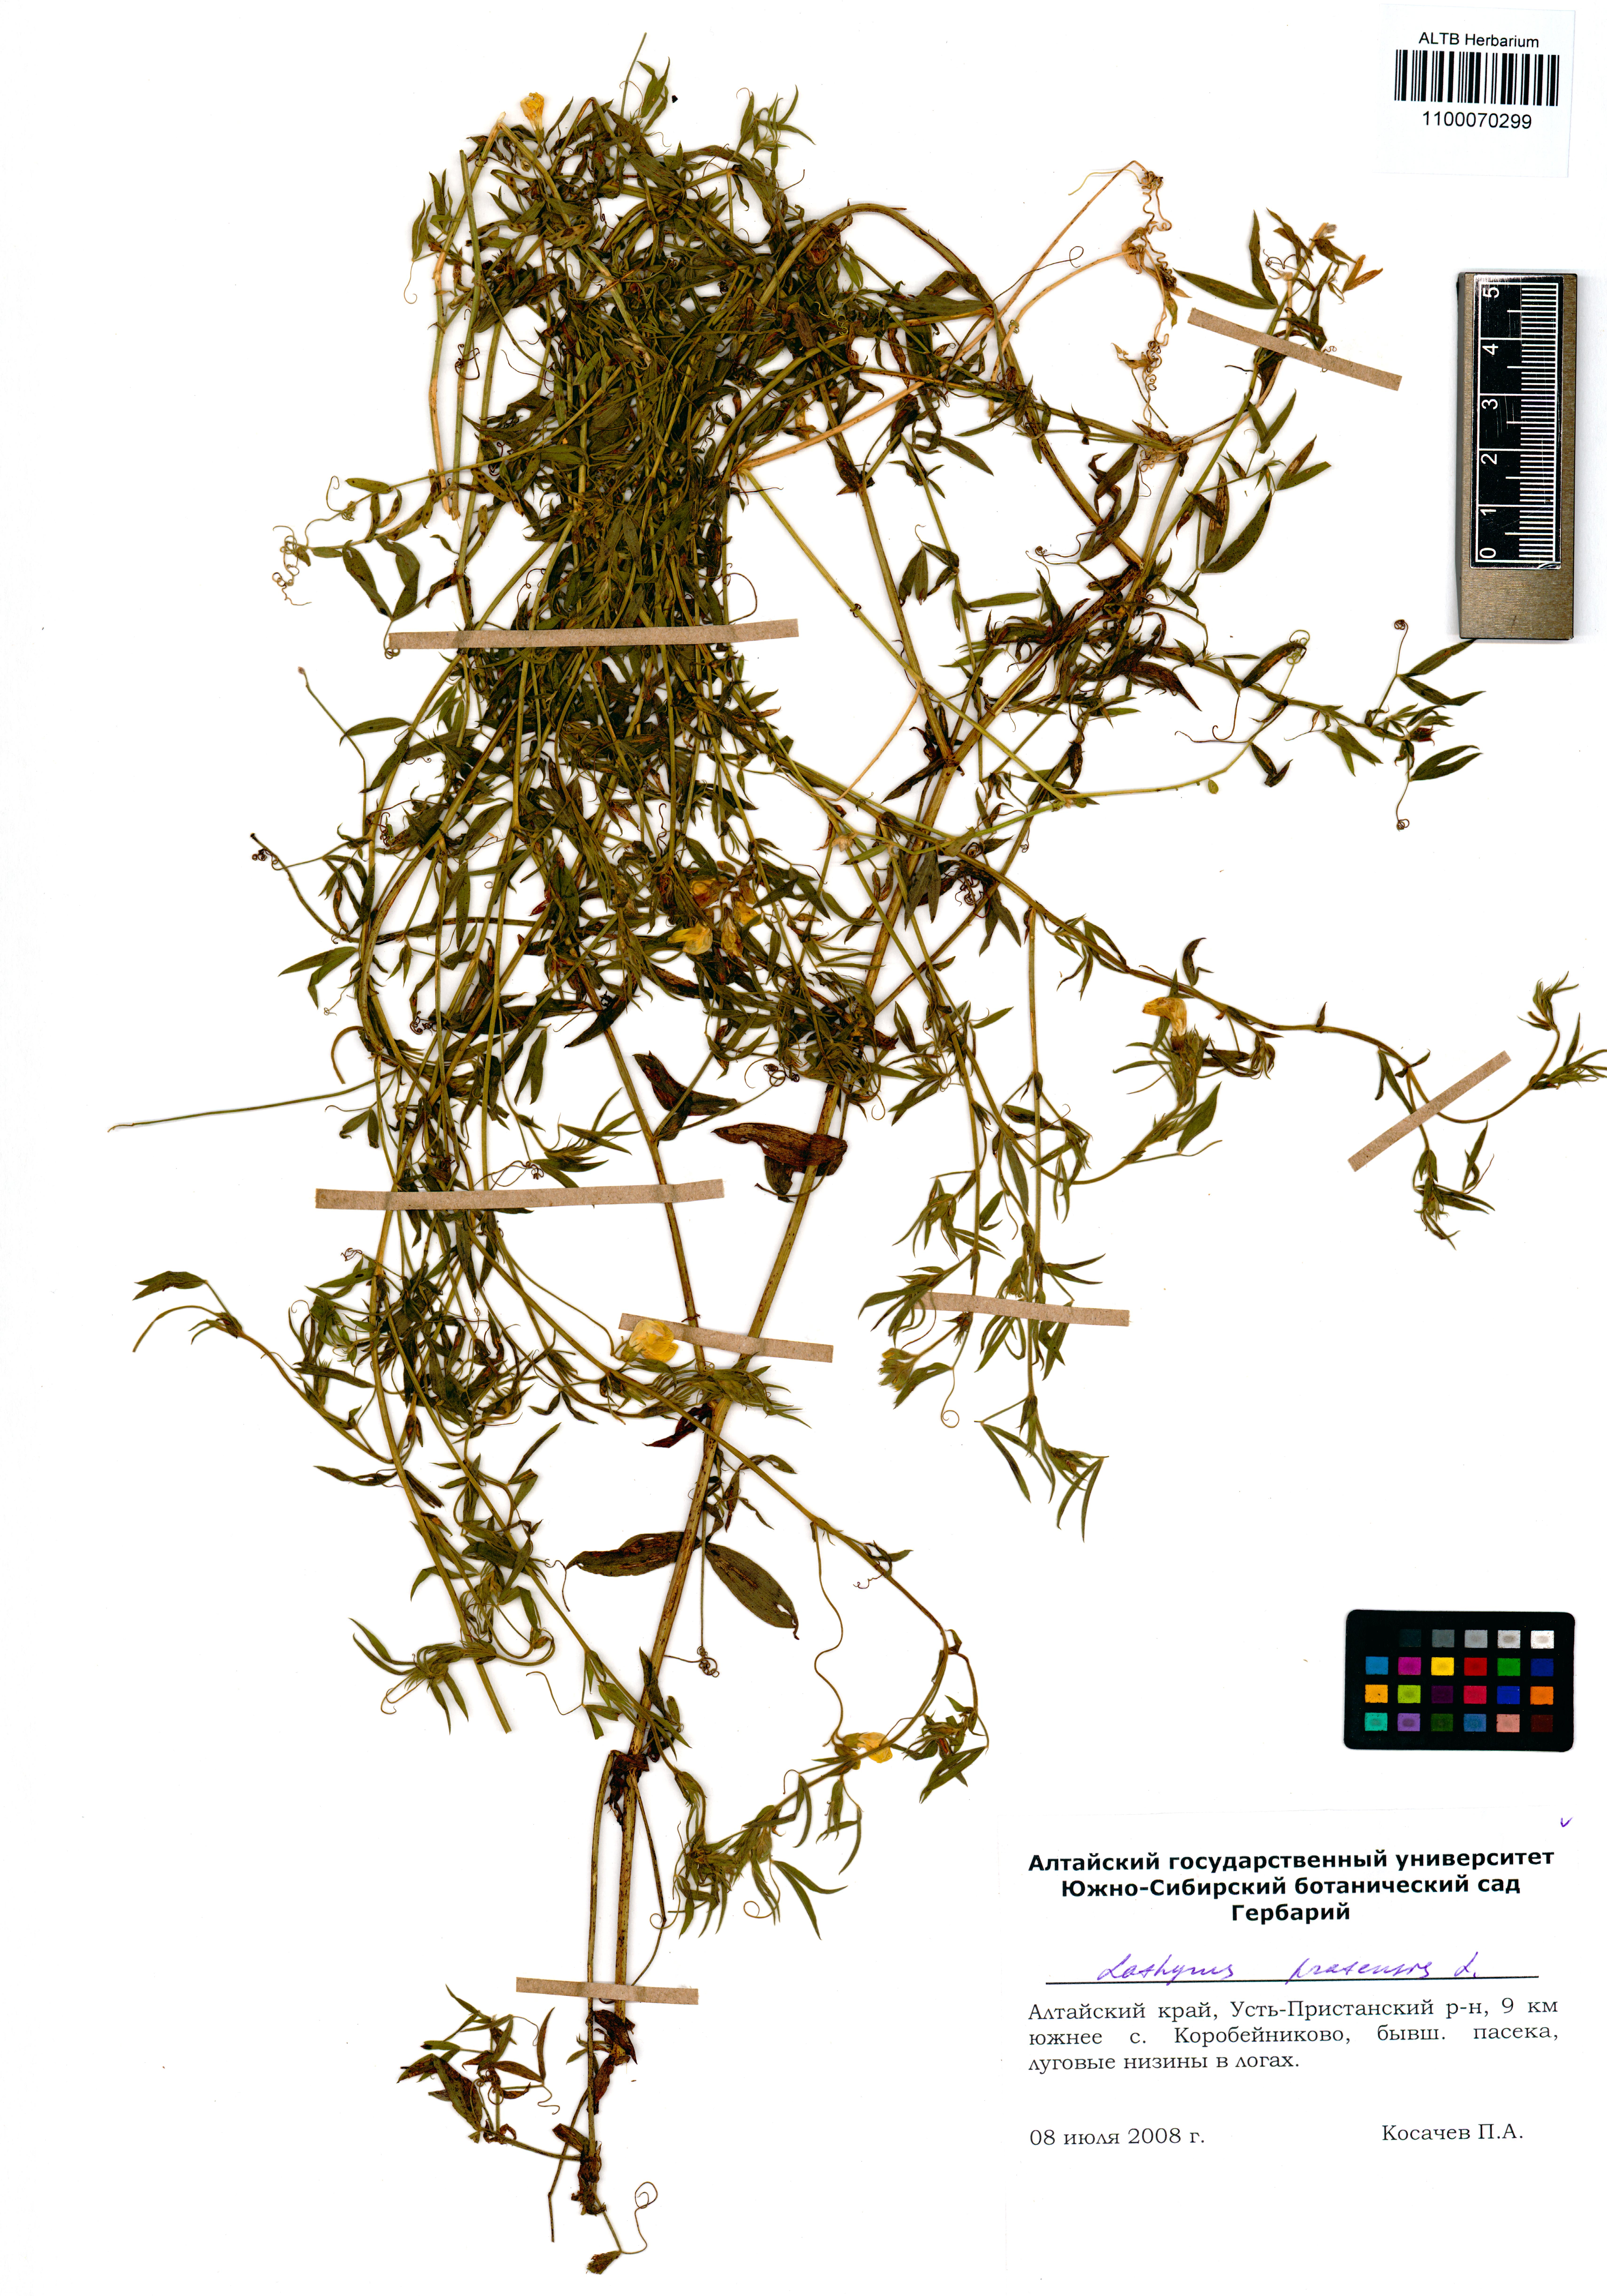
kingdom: Plantae
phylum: Tracheophyta
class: Magnoliopsida
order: Fabales
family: Fabaceae
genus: Lathyrus
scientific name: Lathyrus pratensis
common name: Meadow vetchling
